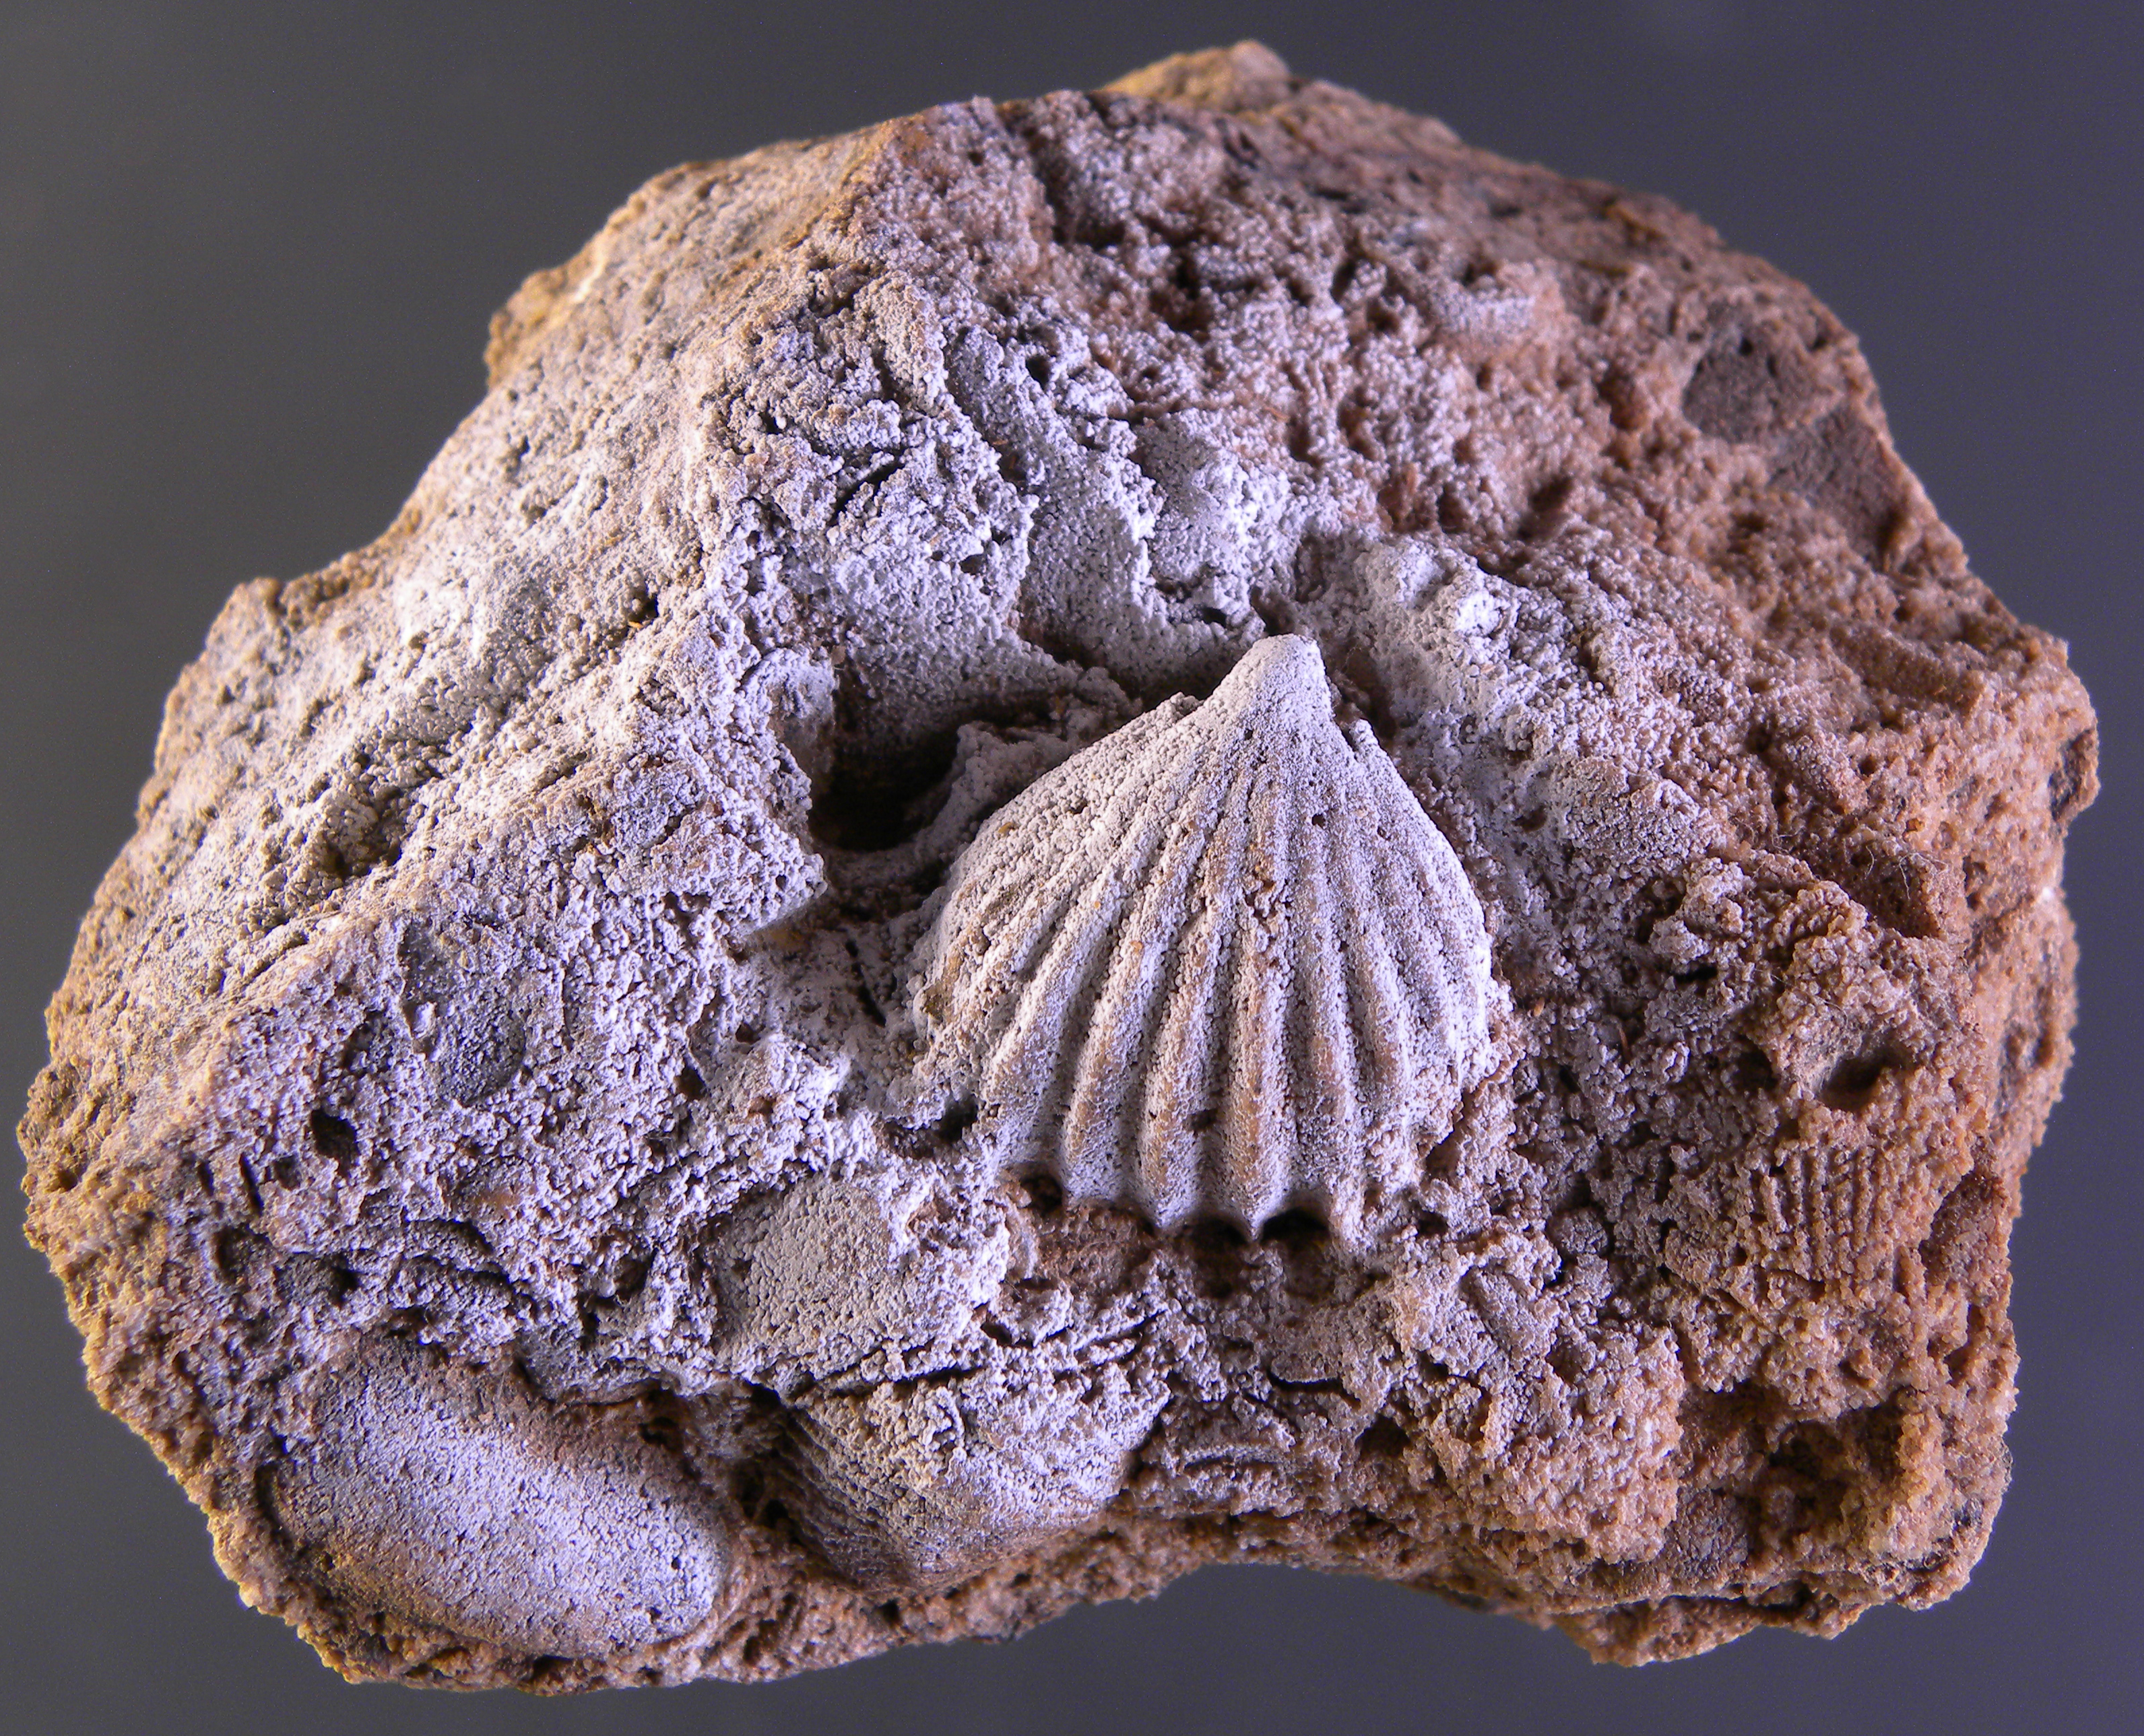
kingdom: Animalia
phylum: Brachiopoda
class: Rhynchonellata
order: Rhynchonellida
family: Trigonirhynchiidae
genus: Oligoptycherhynchus
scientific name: Oligoptycherhynchus
